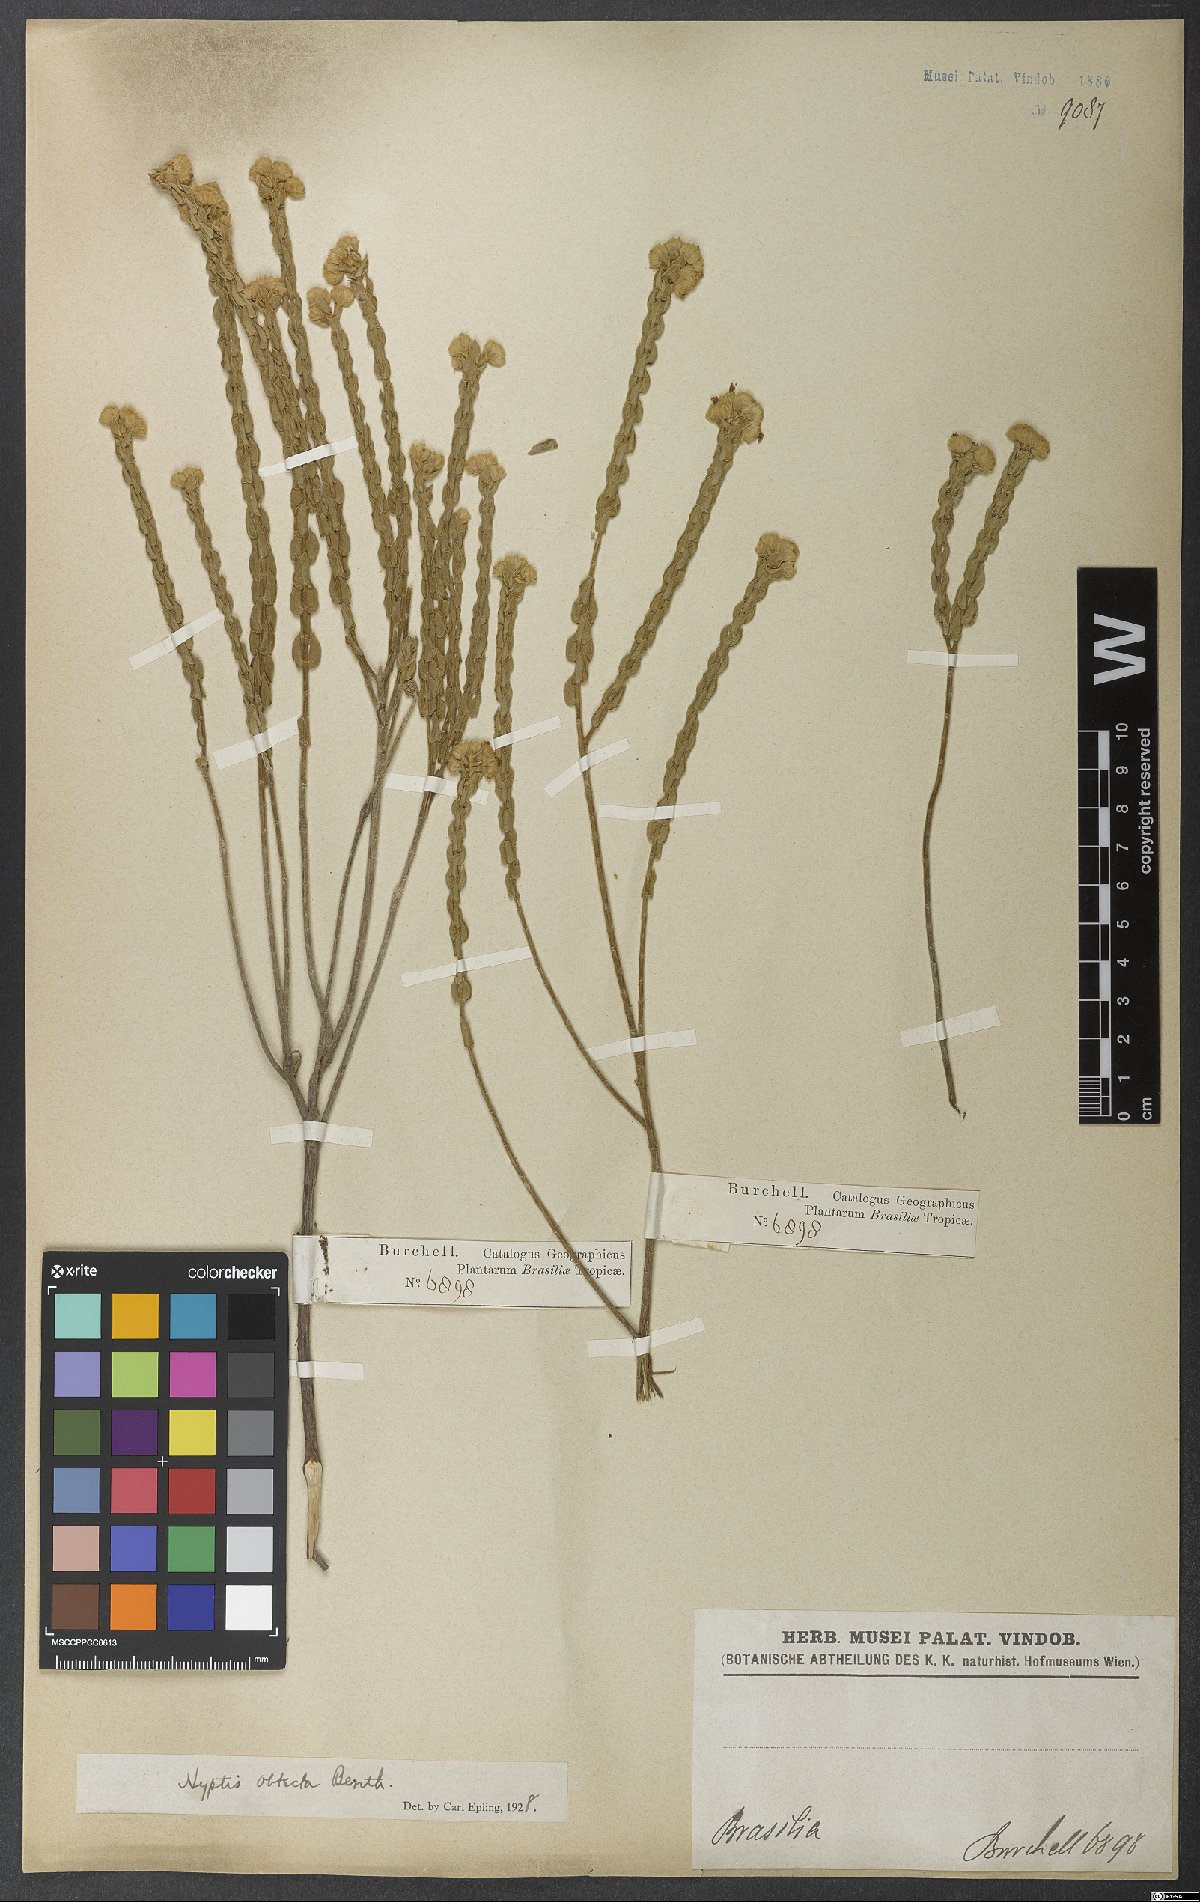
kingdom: Plantae
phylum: Tracheophyta
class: Magnoliopsida
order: Lamiales
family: Lamiaceae
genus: Hyptis
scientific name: Hyptis obtecta
